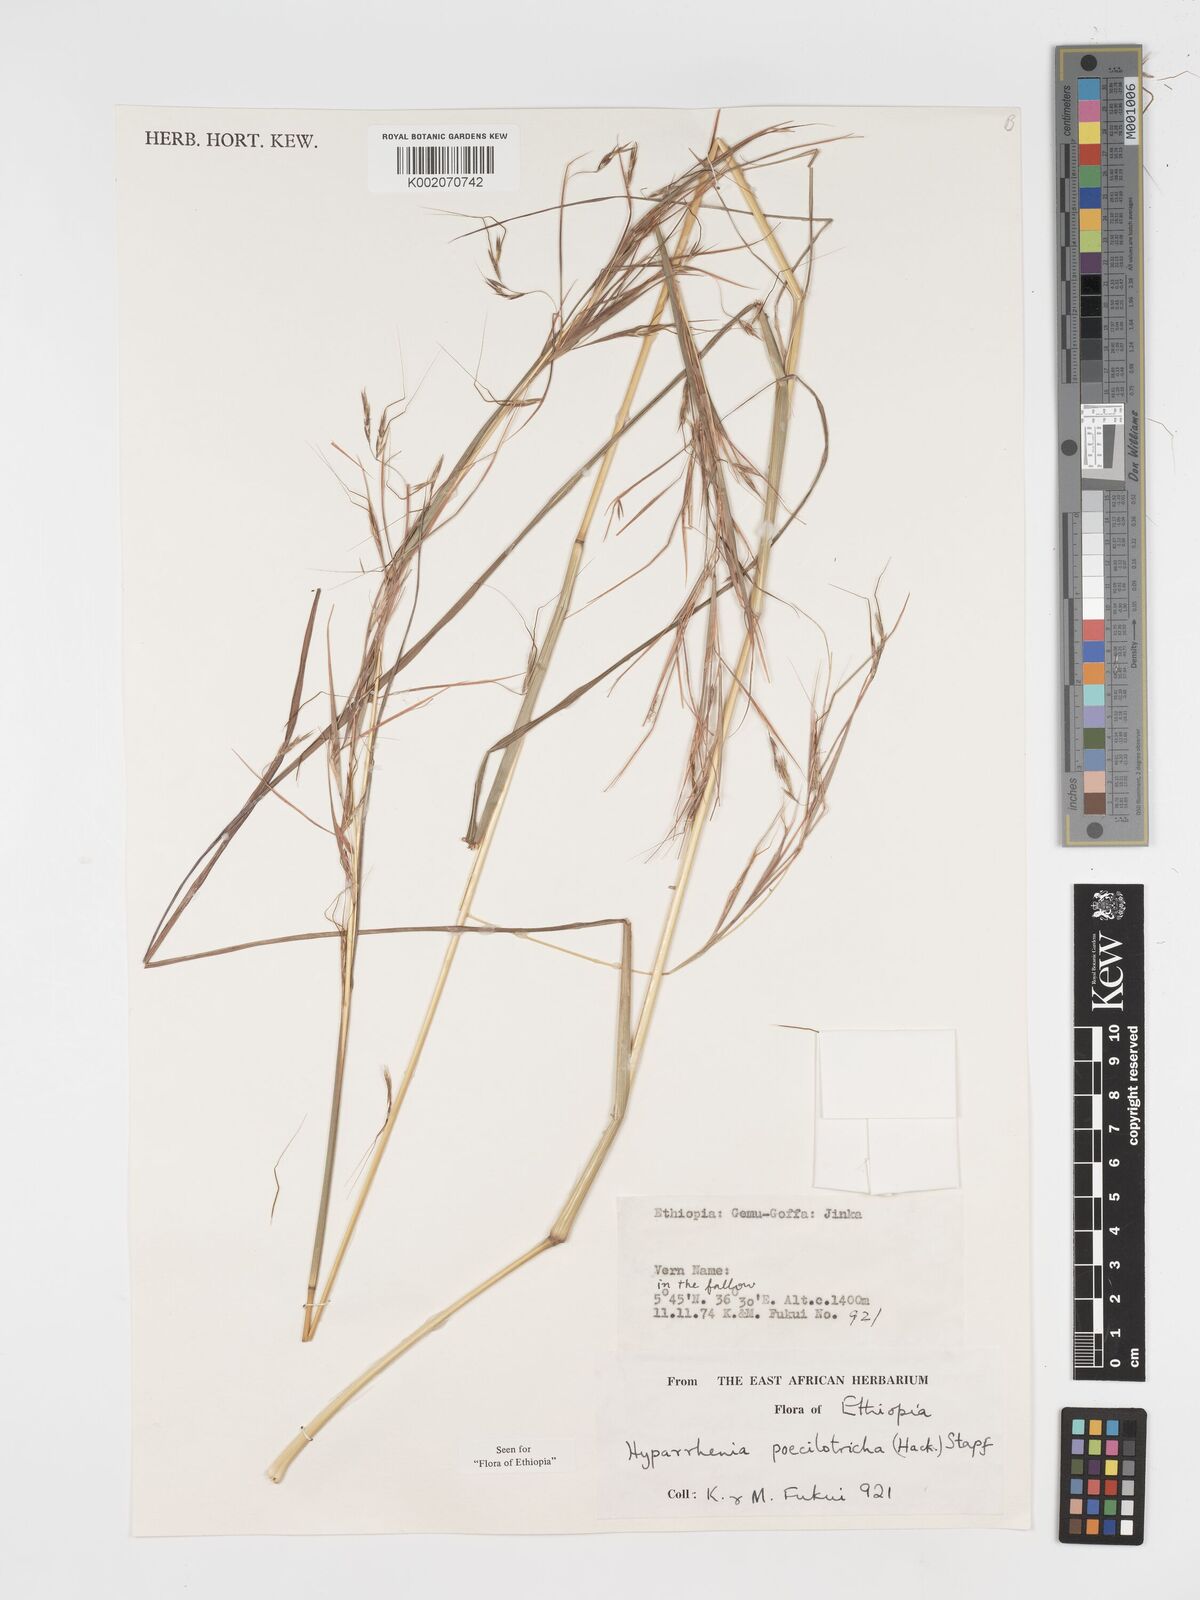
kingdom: Plantae
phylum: Tracheophyta
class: Liliopsida
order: Poales
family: Poaceae
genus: Hyparrhenia
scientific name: Hyparrhenia poecilotricha
